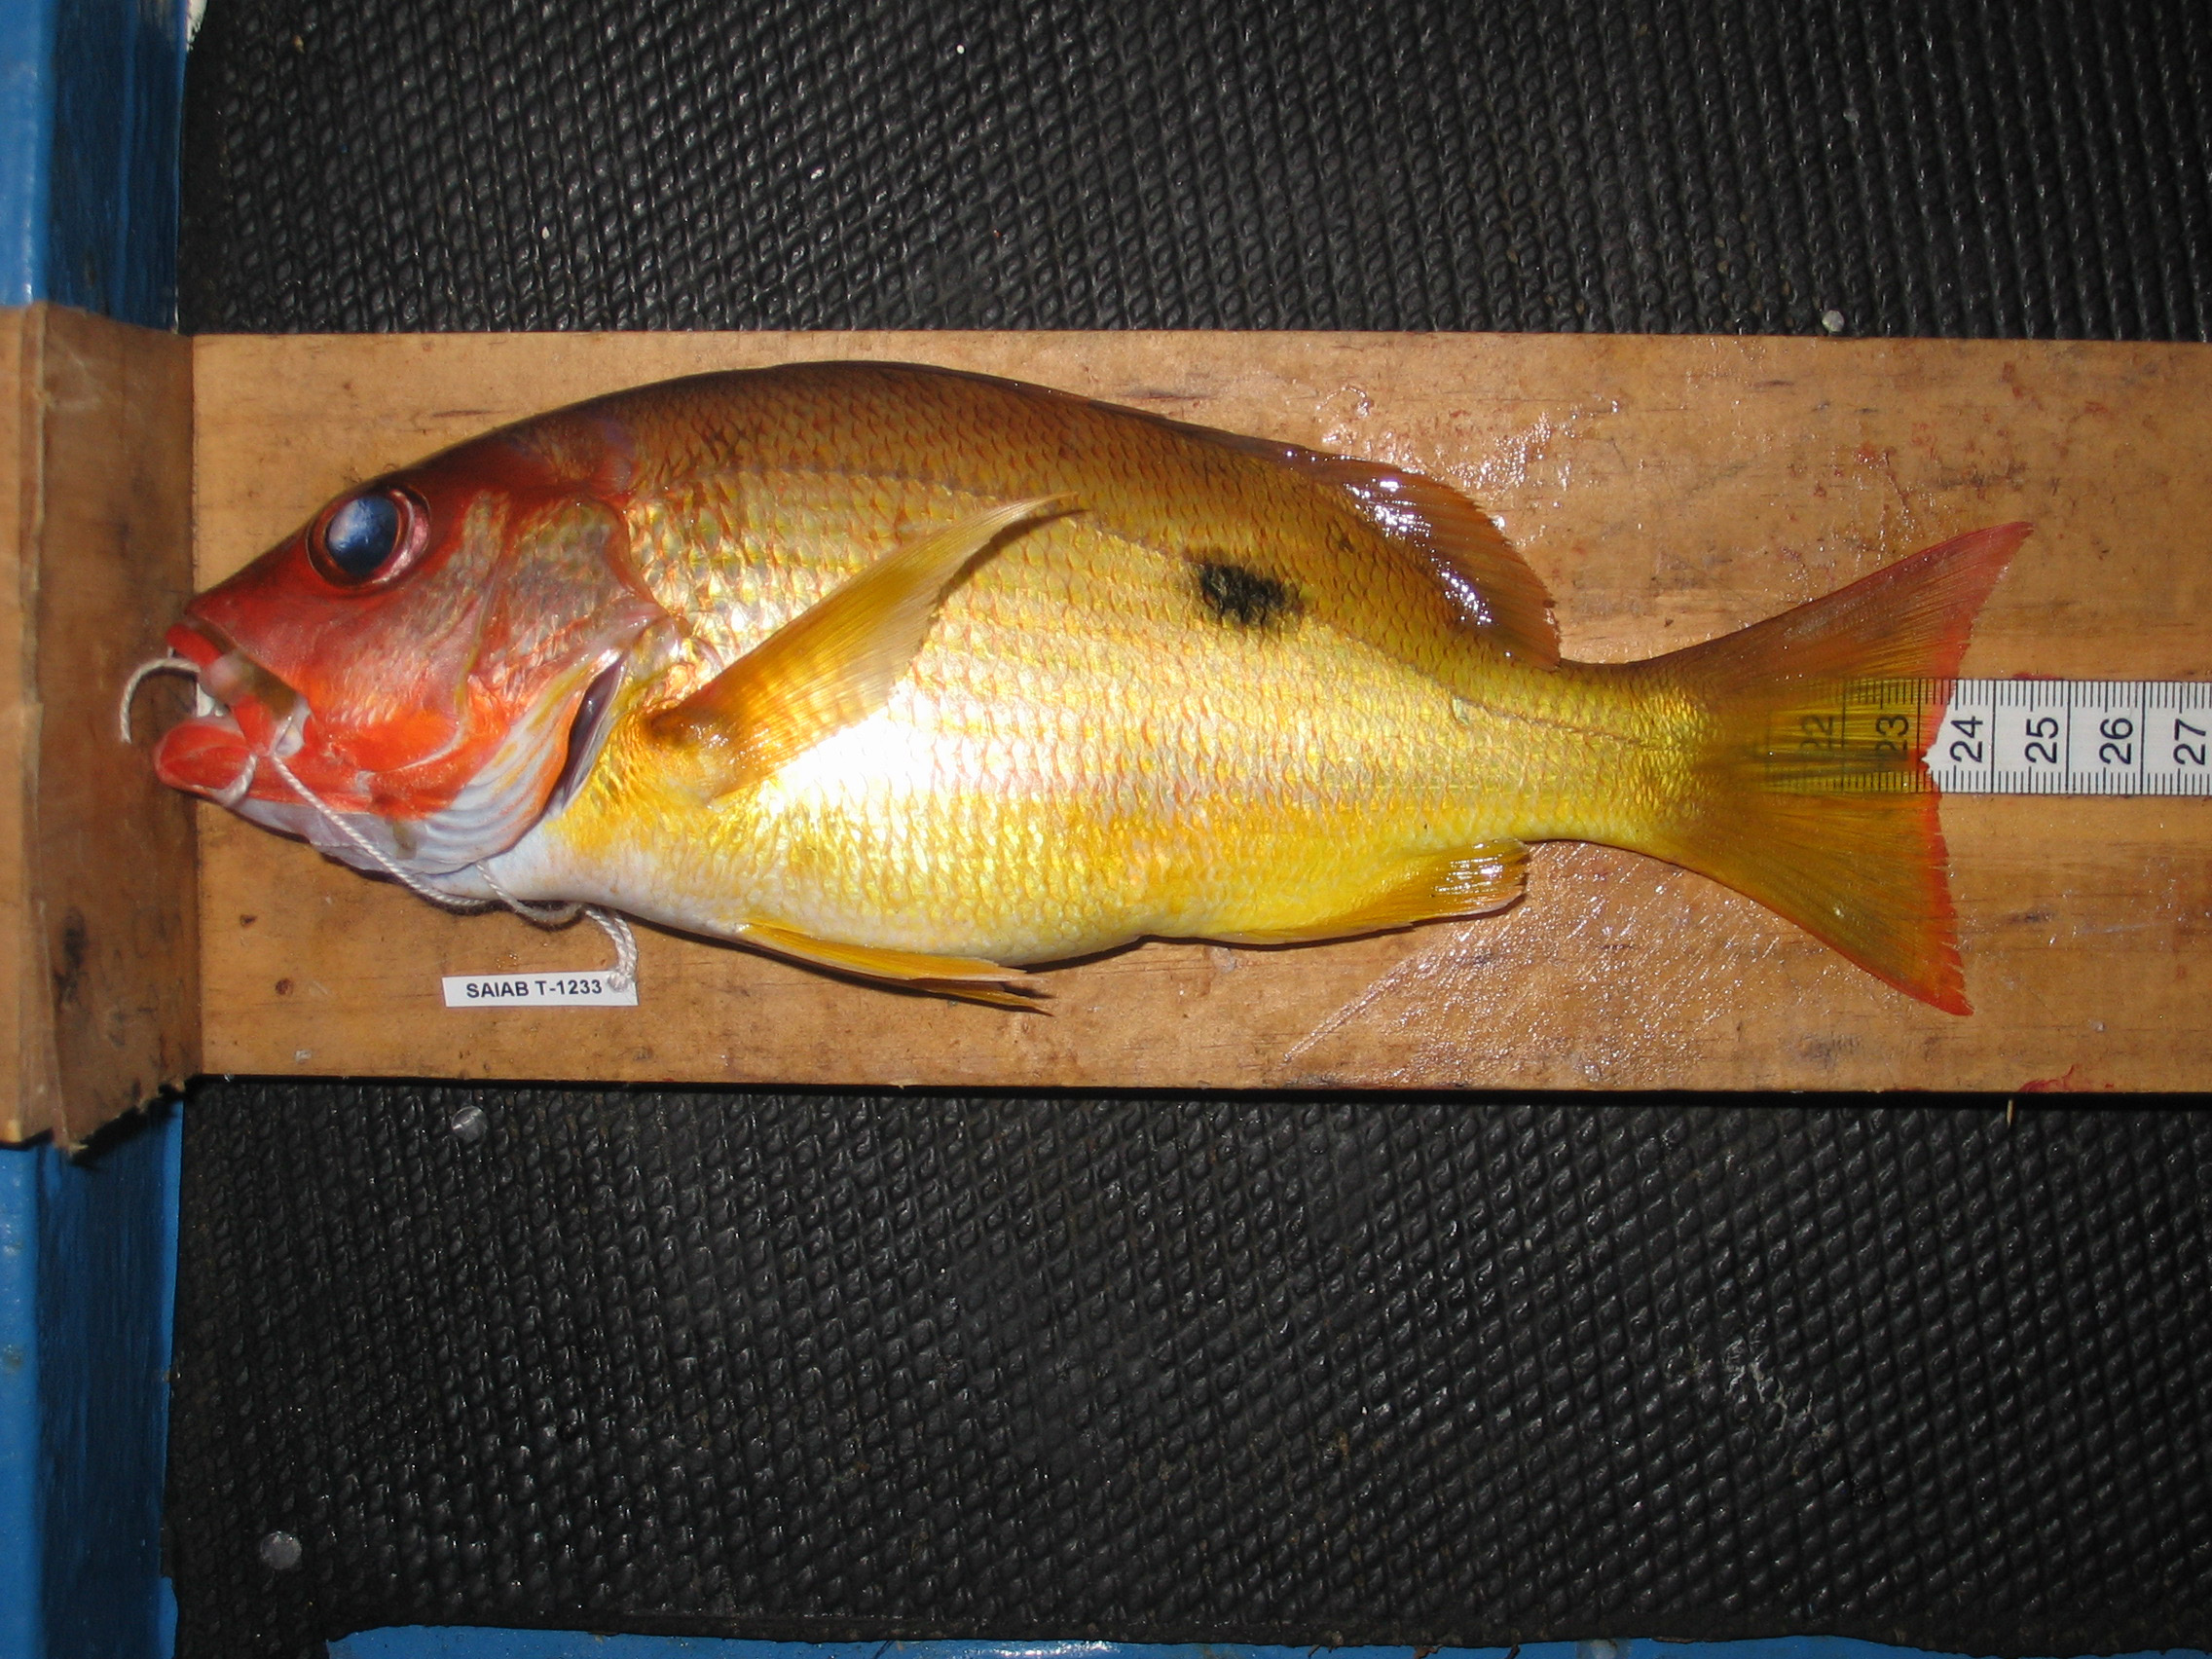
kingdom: Animalia
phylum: Chordata
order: Perciformes
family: Lutjanidae
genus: Lutjanus
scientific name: Lutjanus fulviflamma
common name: Blackspot snapper
